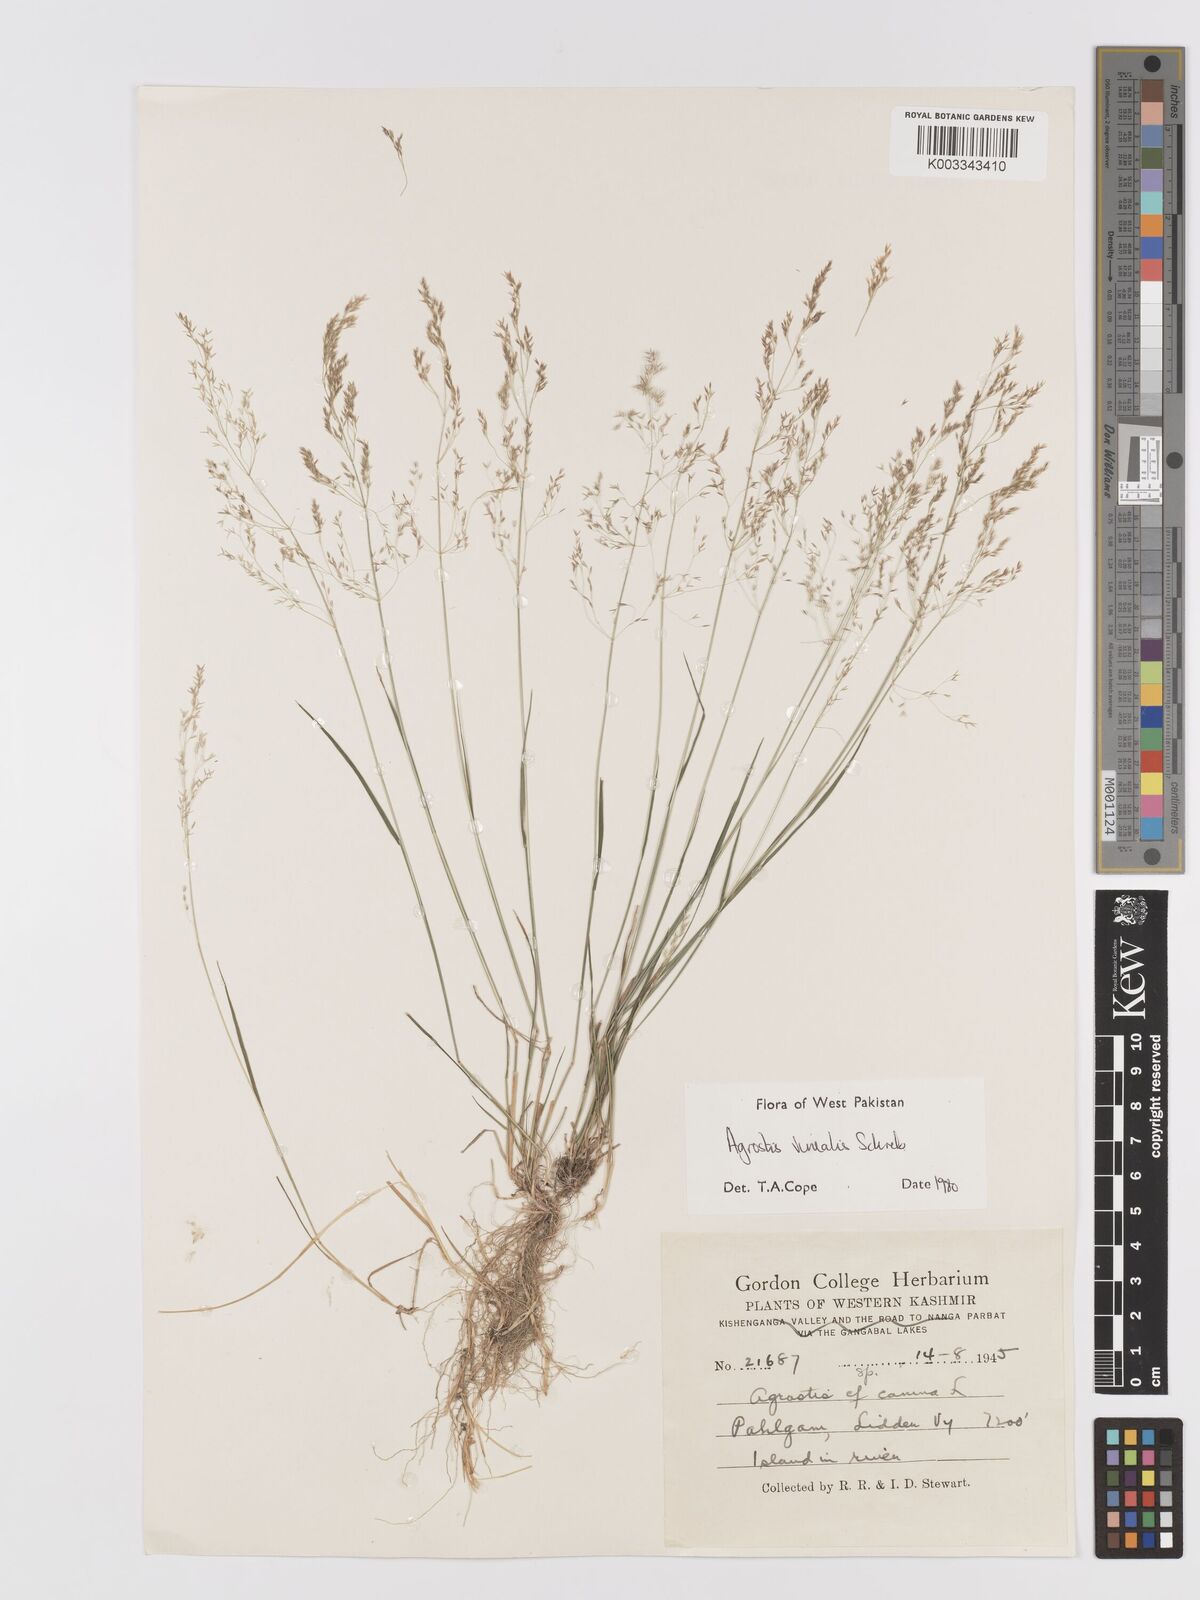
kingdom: Plantae
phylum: Tracheophyta
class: Liliopsida
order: Poales
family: Poaceae
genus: Agrostis
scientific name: Agrostis vinealis
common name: Brown bent
